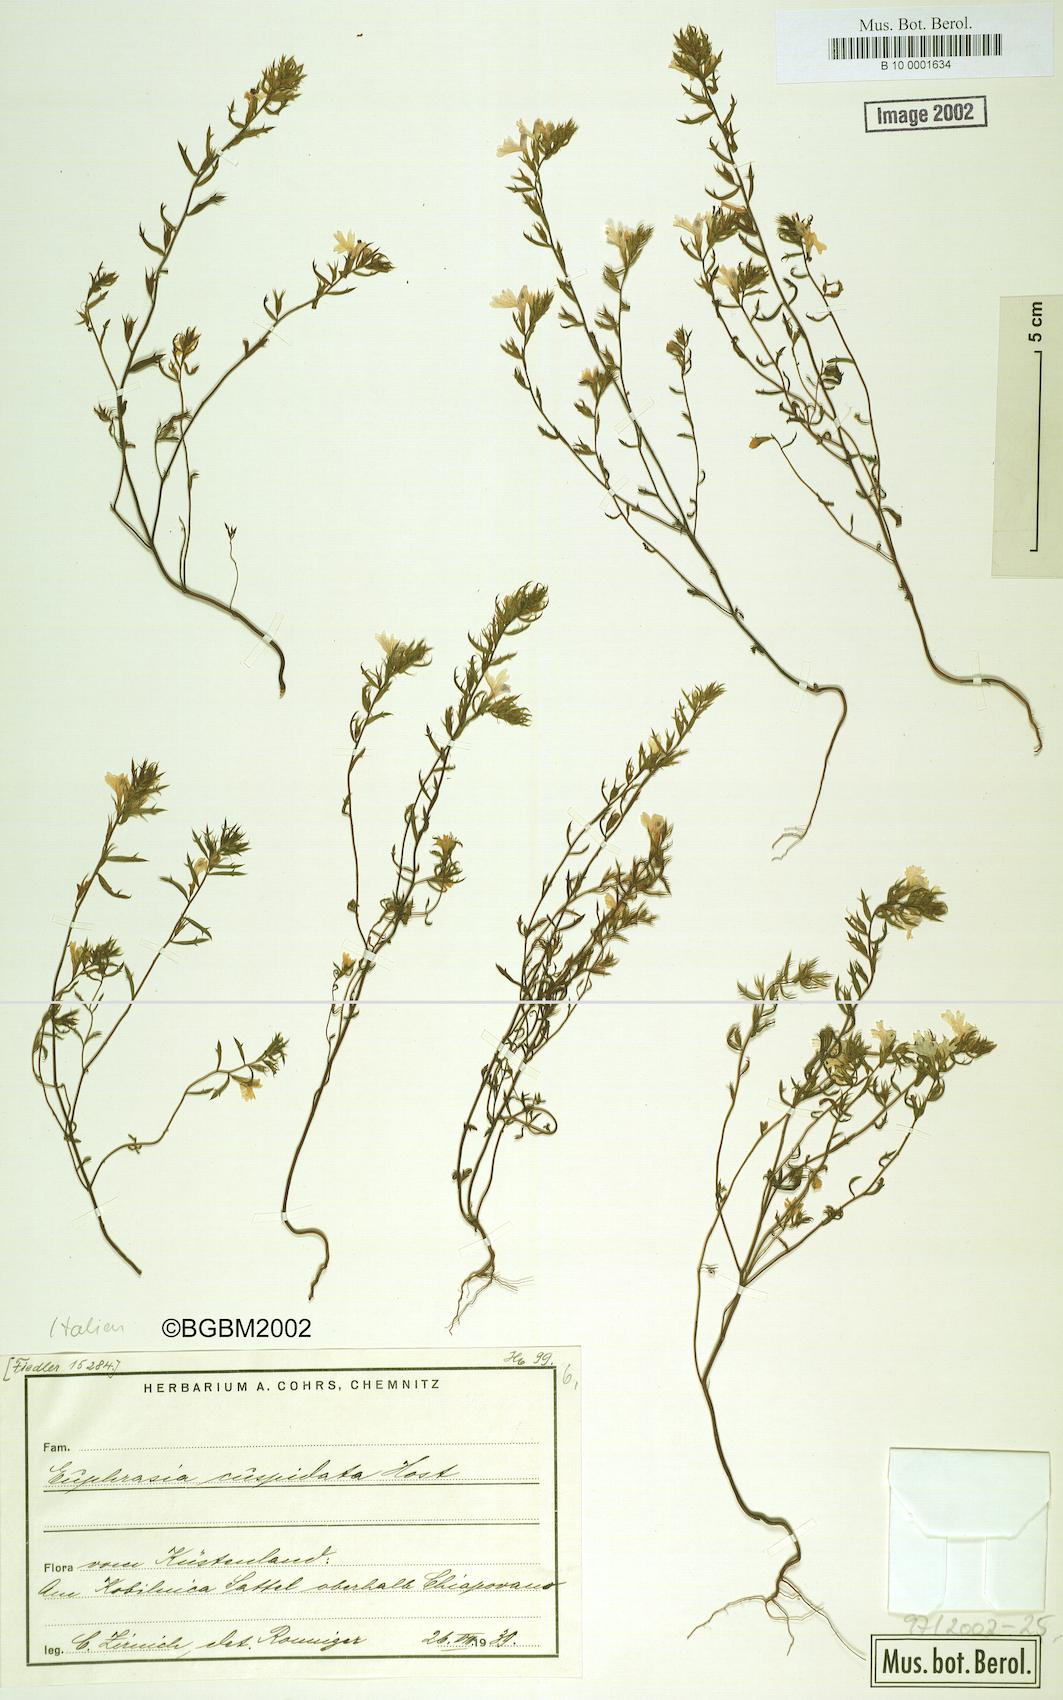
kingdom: Plantae
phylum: Tracheophyta
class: Magnoliopsida
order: Lamiales
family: Orobanchaceae
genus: Euphrasia
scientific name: Euphrasia cuspidata
